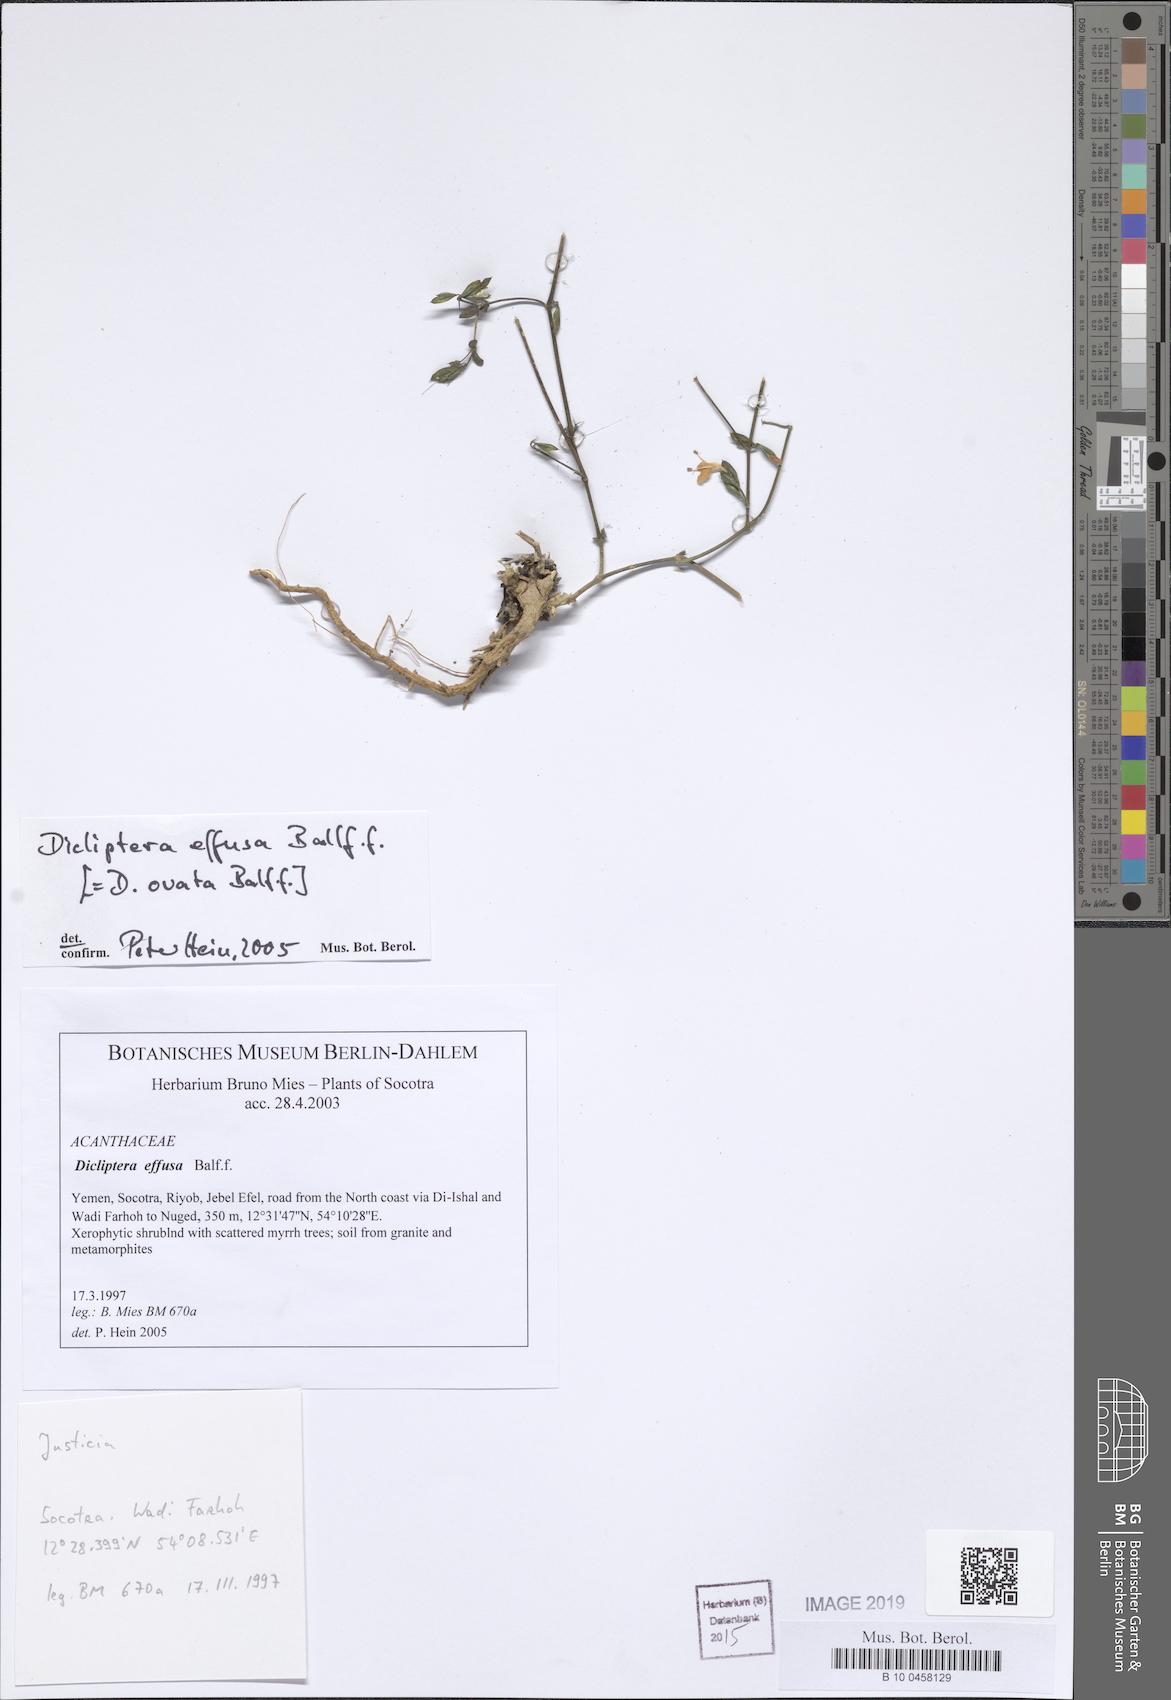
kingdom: Plantae
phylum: Tracheophyta
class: Magnoliopsida
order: Lamiales
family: Acanthaceae
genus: Dicliptera
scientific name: Dicliptera effusa
